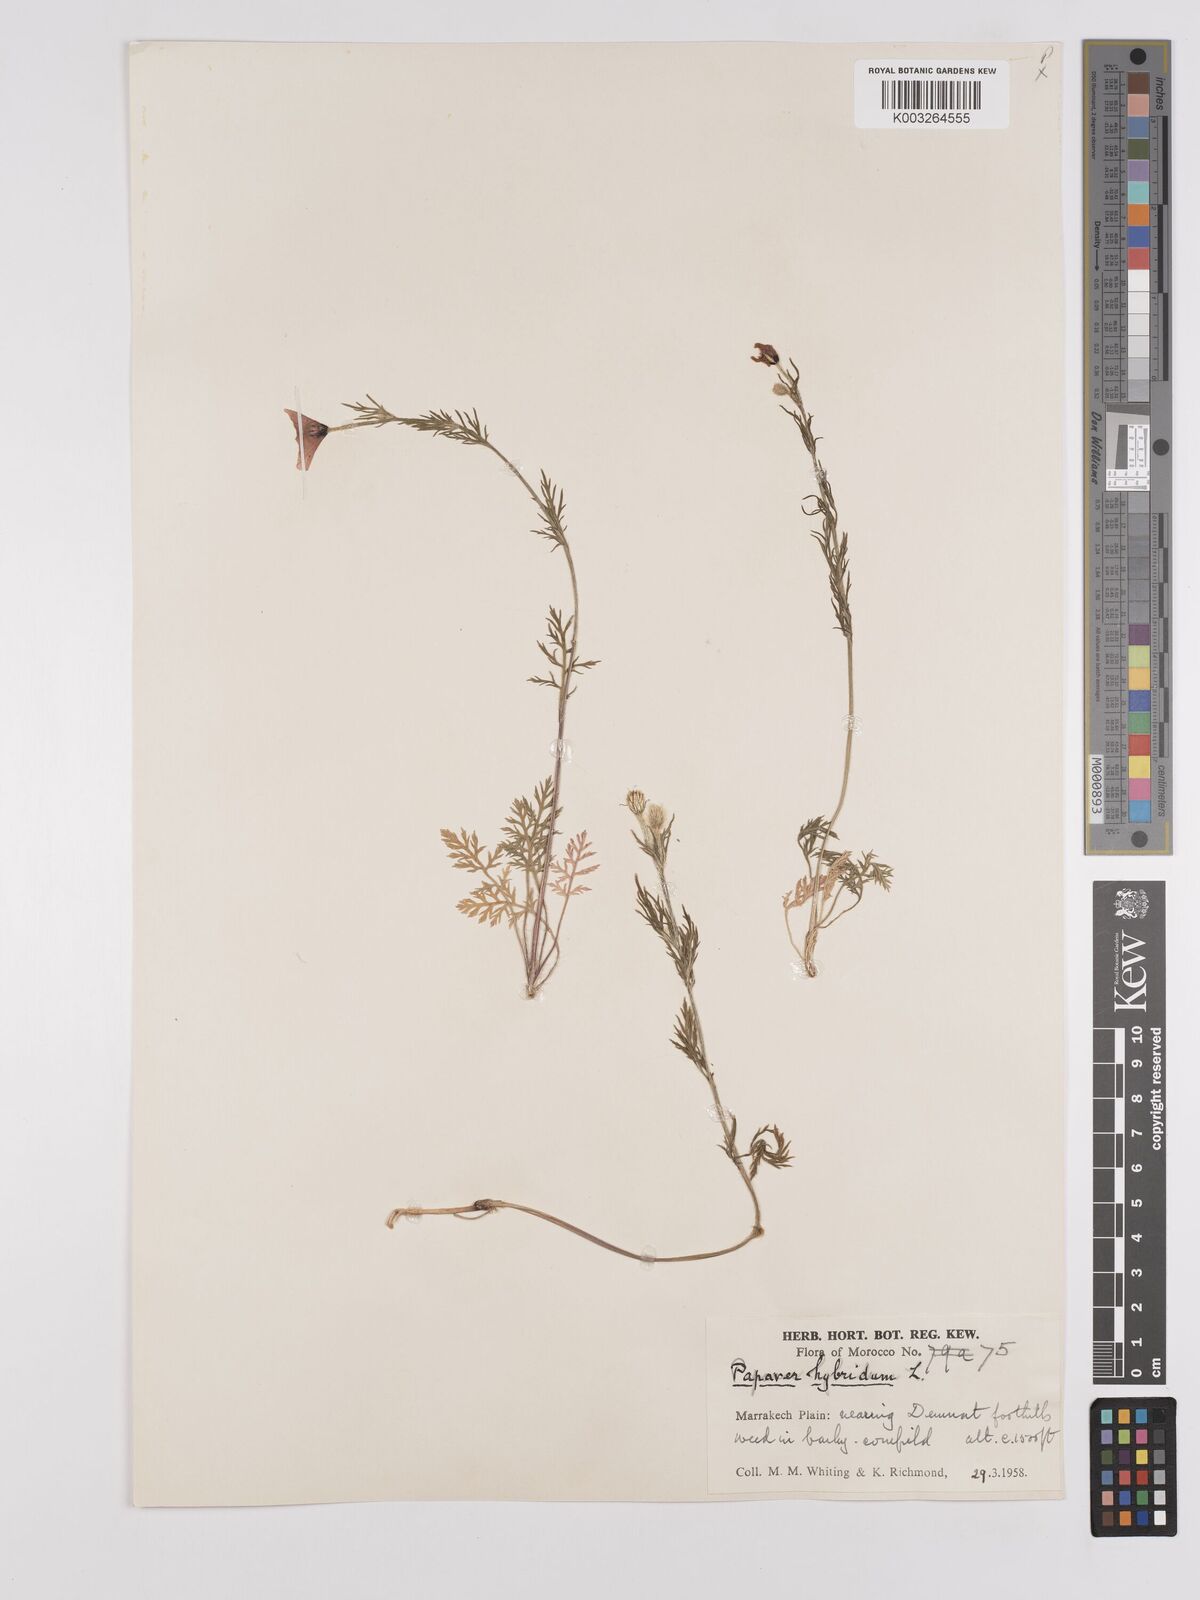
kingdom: Plantae
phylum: Tracheophyta
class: Magnoliopsida
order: Ranunculales
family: Papaveraceae
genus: Papaver
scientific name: Papaver
